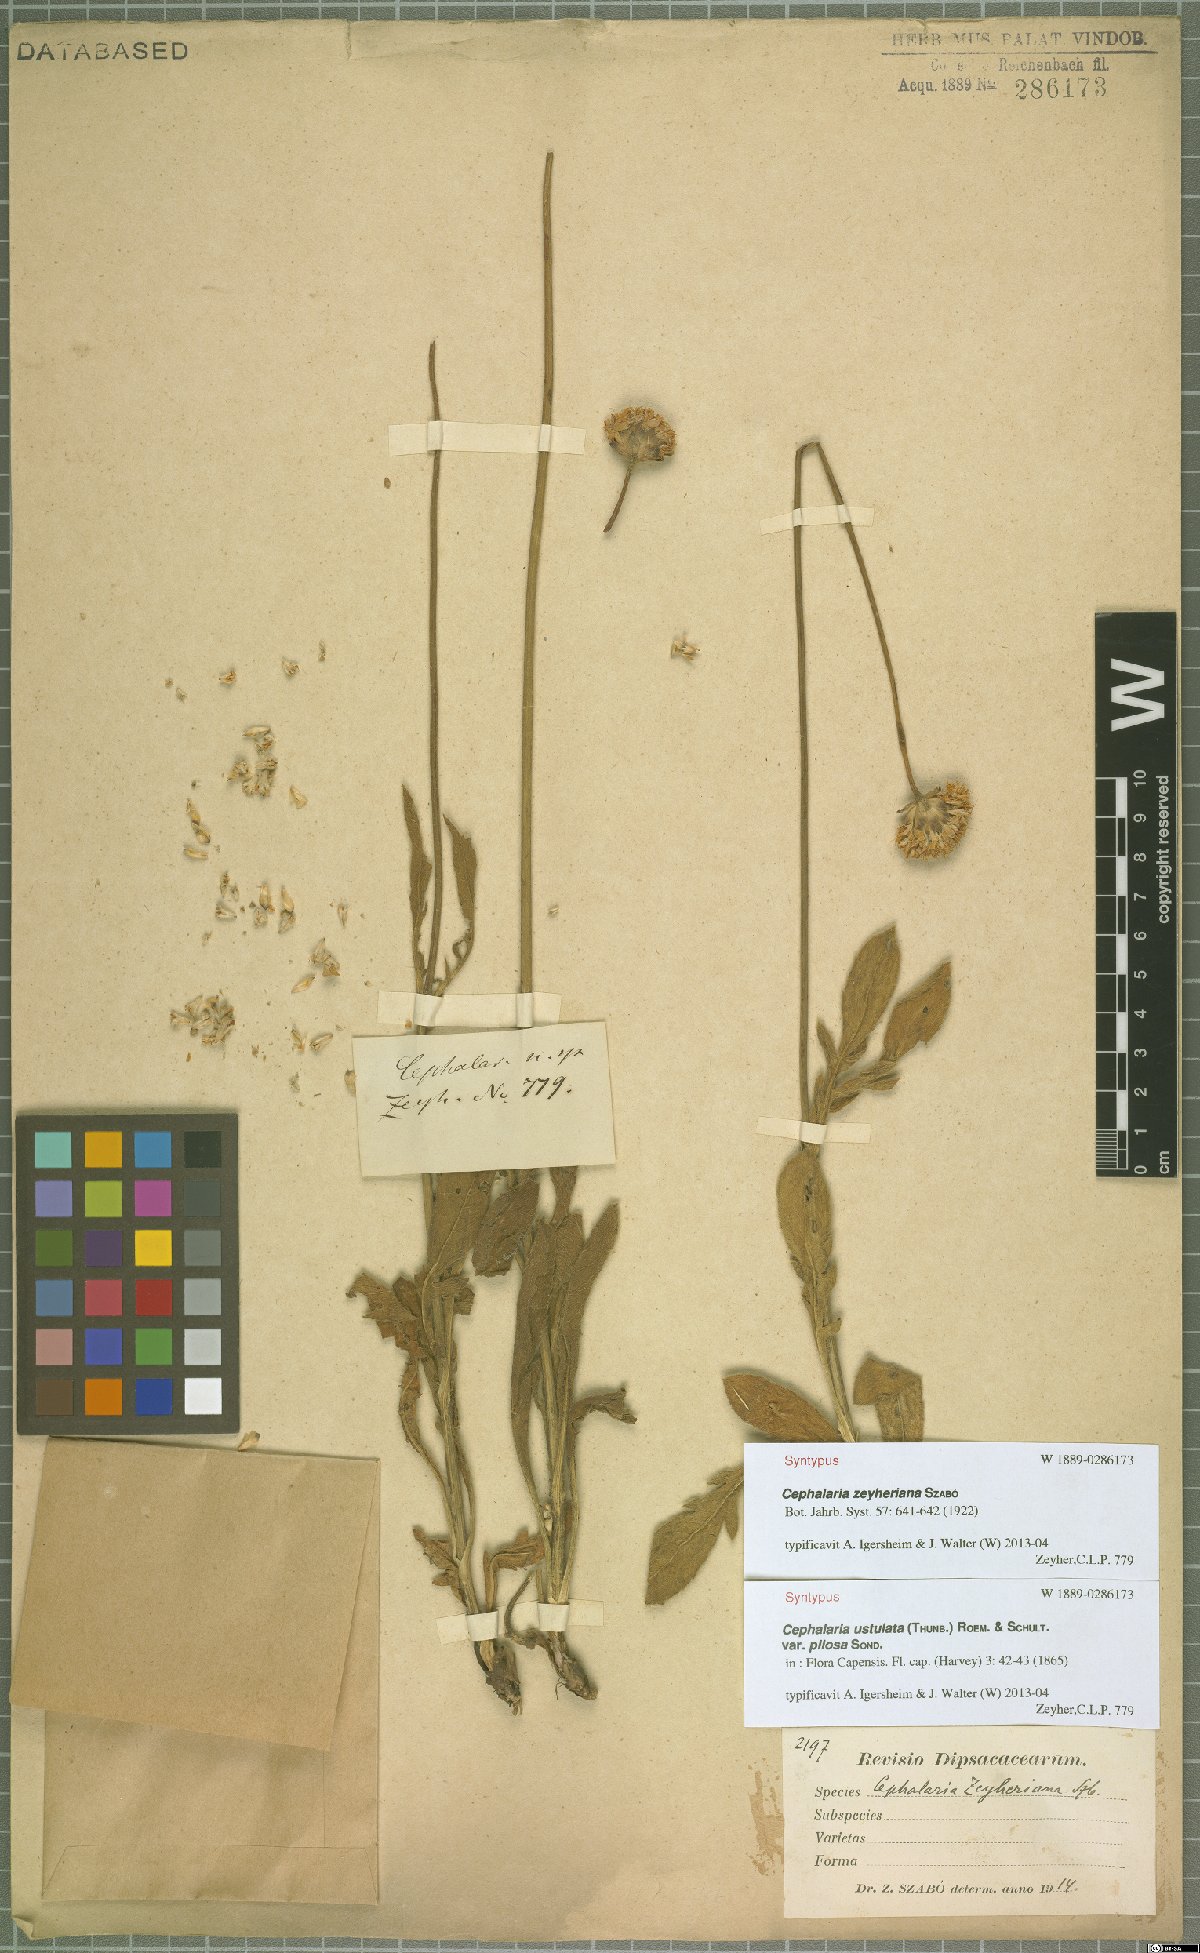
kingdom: Plantae
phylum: Tracheophyta
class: Magnoliopsida
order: Dipsacales
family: Caprifoliaceae
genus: Cephalaria
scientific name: Cephalaria zeyheriana
